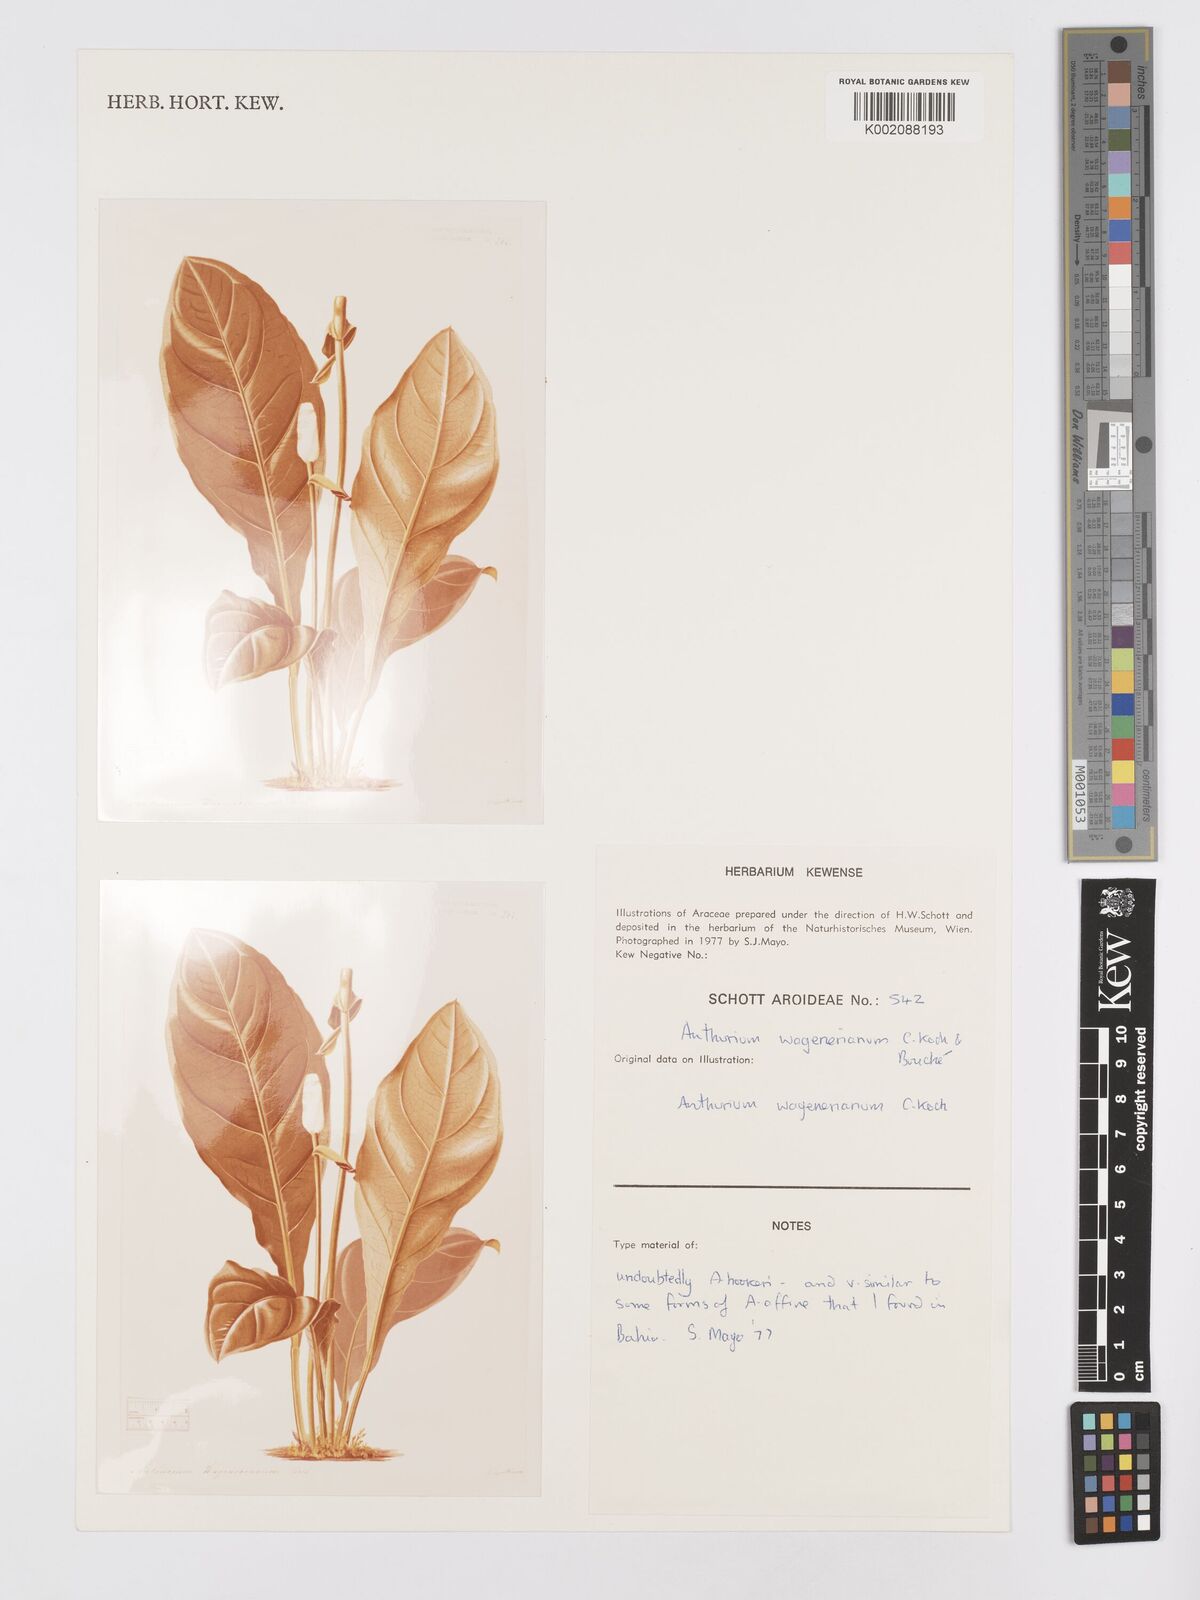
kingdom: Plantae
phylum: Tracheophyta
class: Liliopsida
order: Alismatales
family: Araceae
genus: Anthurium
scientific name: Anthurium wagenerianum
